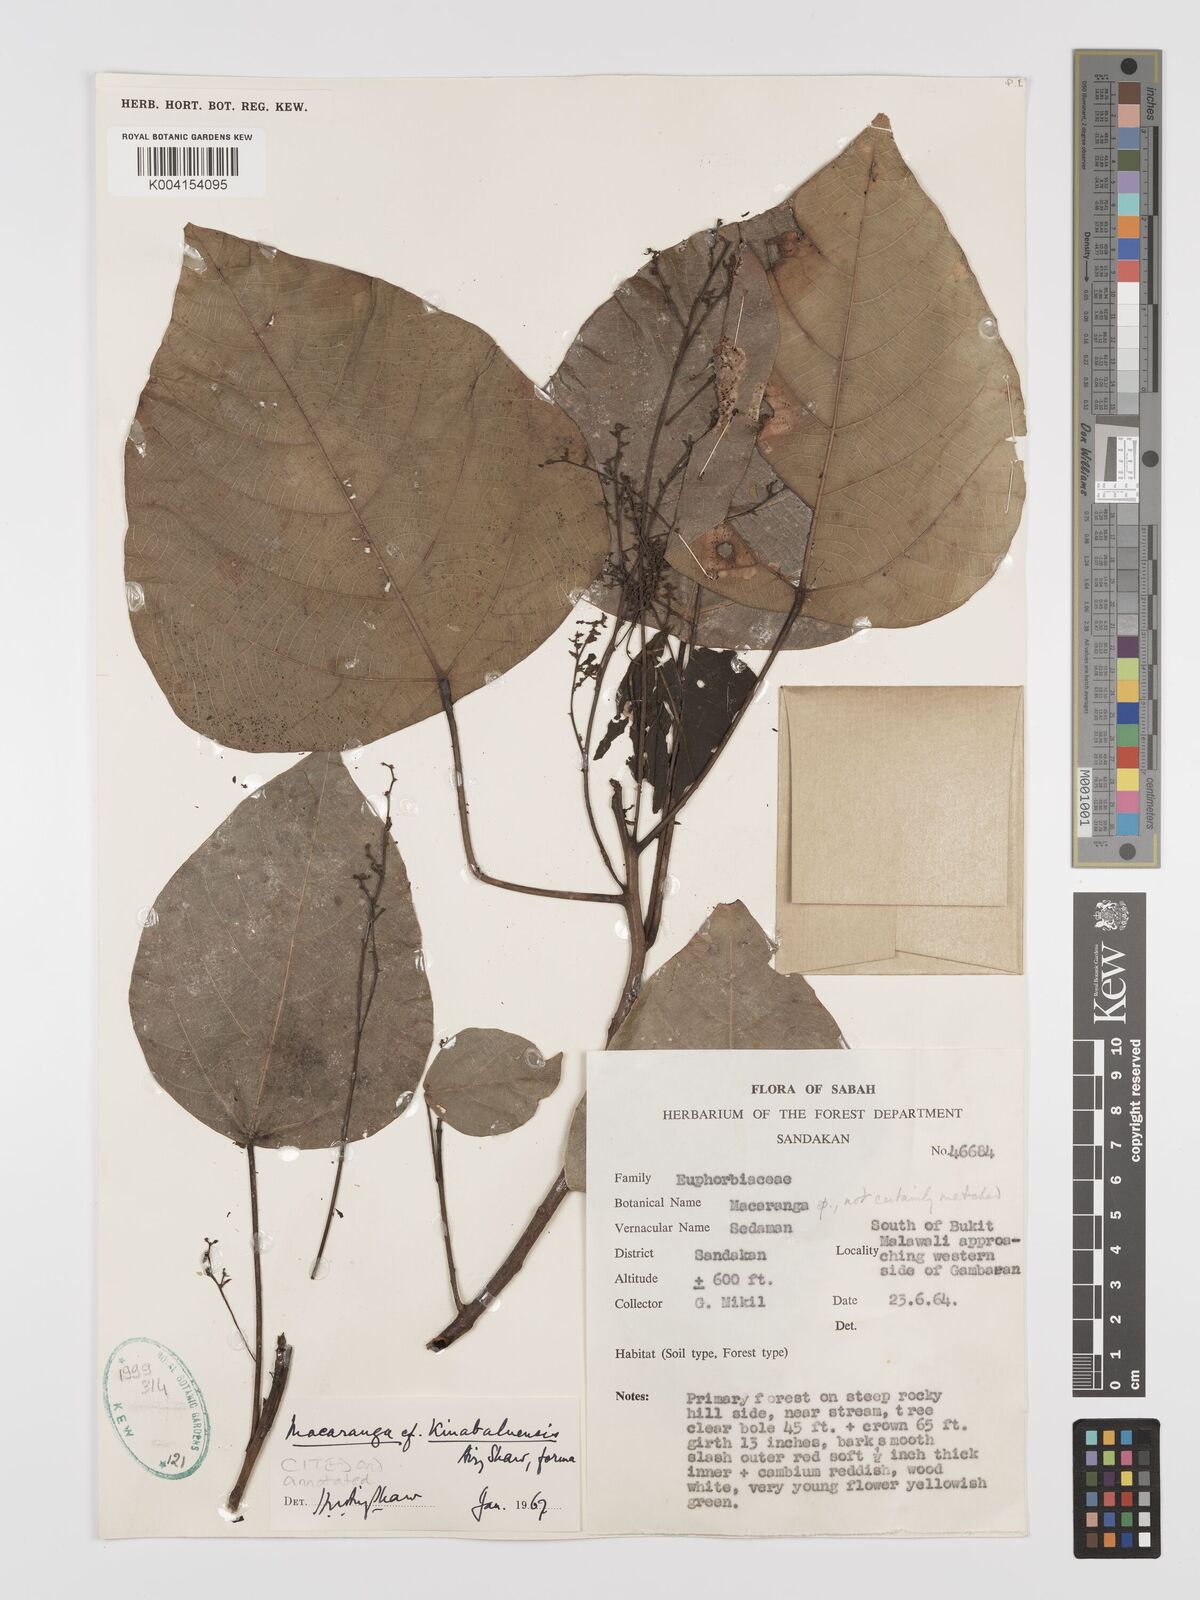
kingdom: Plantae
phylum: Tracheophyta
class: Magnoliopsida
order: Malpighiales
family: Euphorbiaceae
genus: Macaranga
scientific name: Macaranga kinabaluensis
